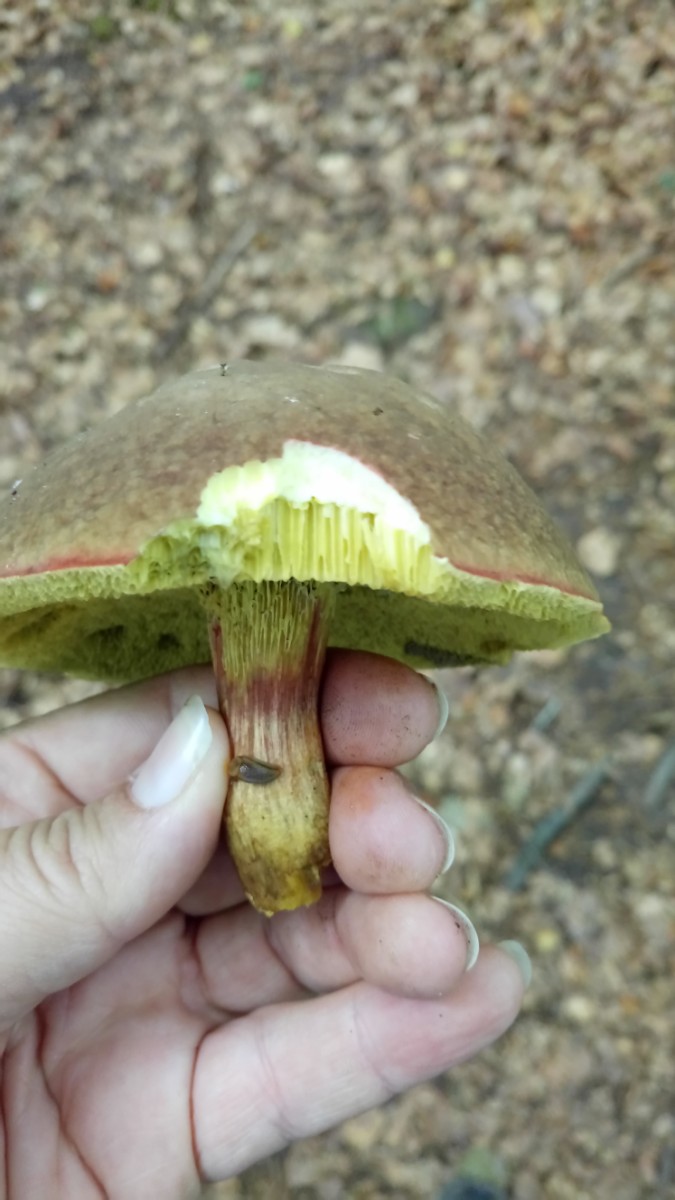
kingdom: Fungi
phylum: Basidiomycota
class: Agaricomycetes
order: Boletales
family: Boletaceae
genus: Xerocomellus
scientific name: Xerocomellus pruinatus
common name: dugget rørhat
